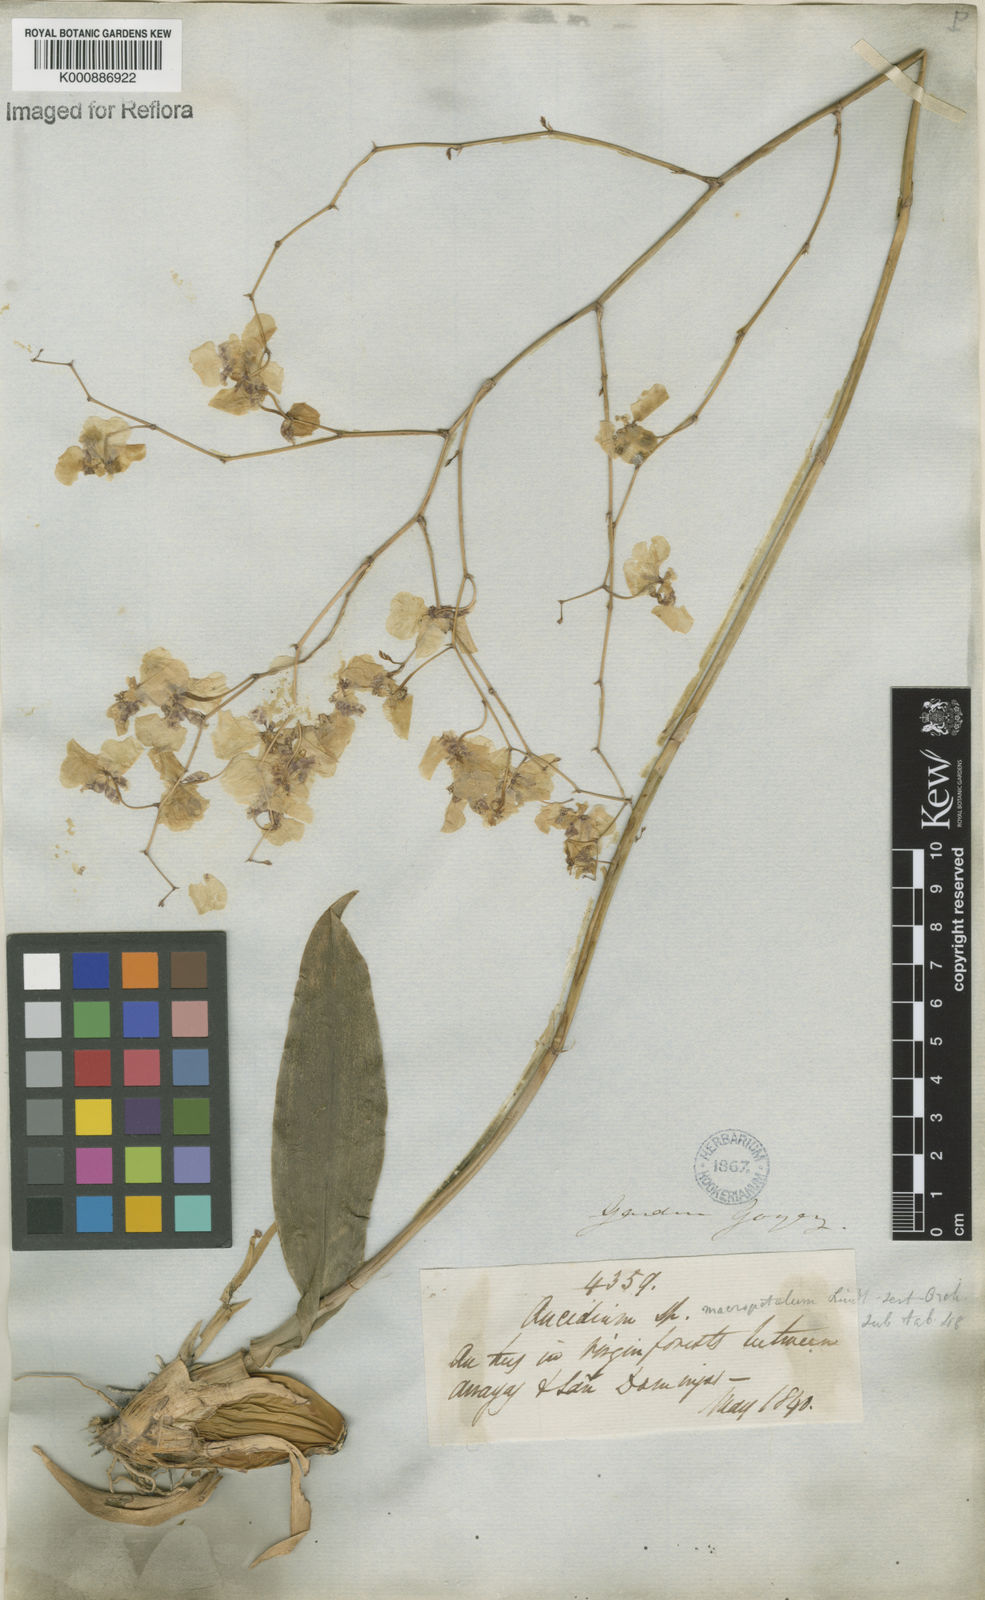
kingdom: Plantae
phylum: Tracheophyta
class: Liliopsida
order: Asparagales
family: Orchidaceae
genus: Gomesa
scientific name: Gomesa macropetala
